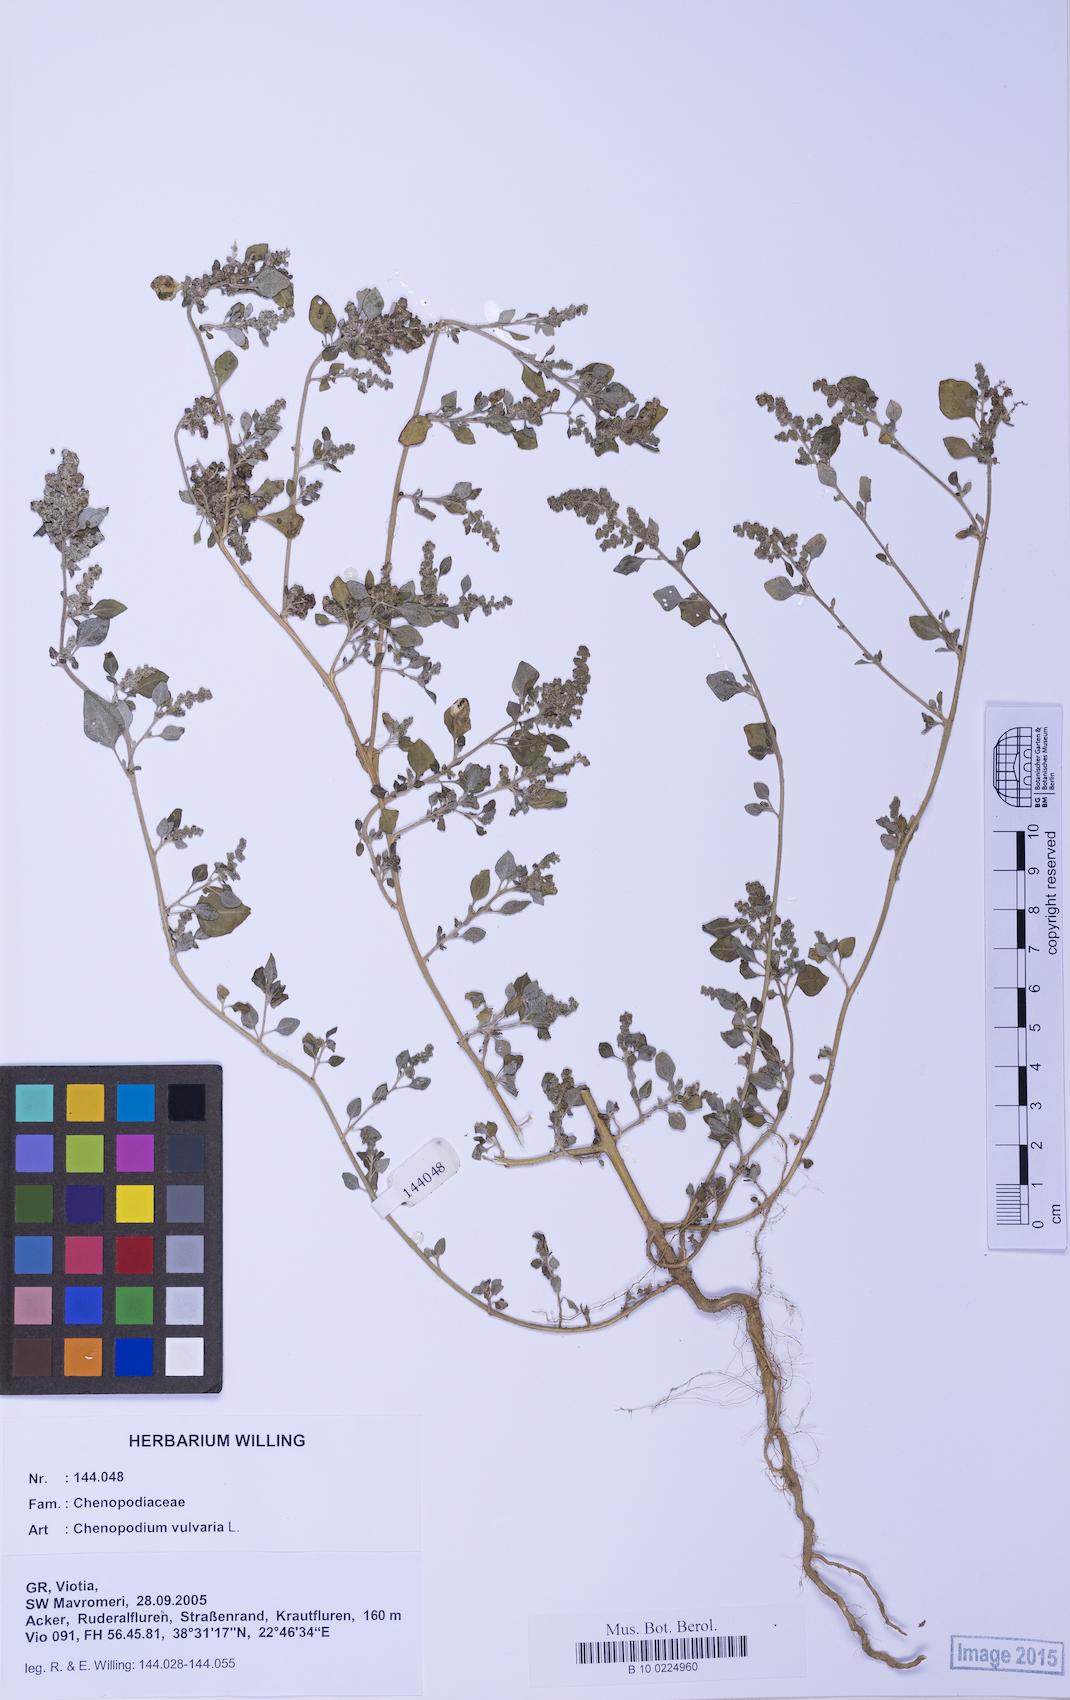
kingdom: Plantae
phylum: Tracheophyta
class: Magnoliopsida
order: Caryophyllales
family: Amaranthaceae
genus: Chenopodium
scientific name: Chenopodium vulvaria
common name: Stinking goosefoot
